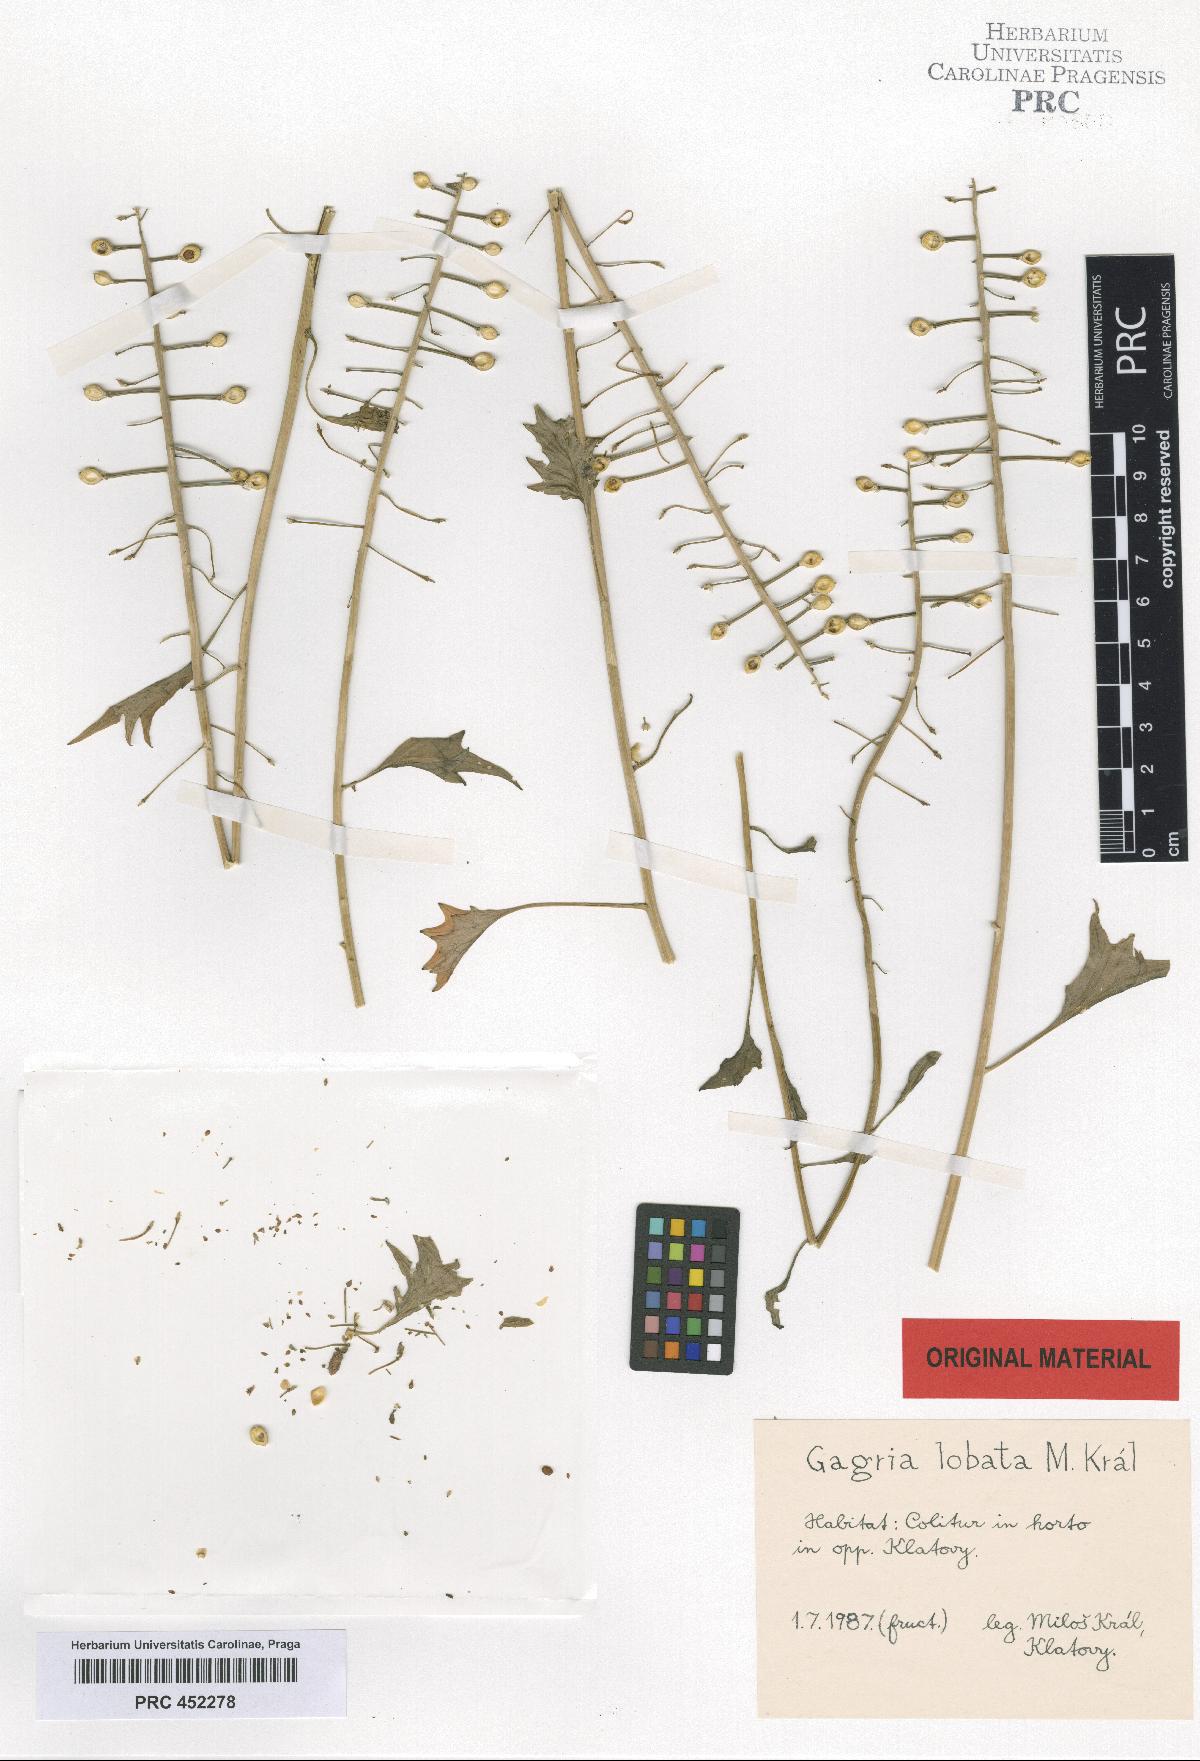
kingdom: Plantae
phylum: Tracheophyta
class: Magnoliopsida
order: Brassicales
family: Brassicaceae
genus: Pachyphragma
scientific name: Pachyphragma macrophyllum
